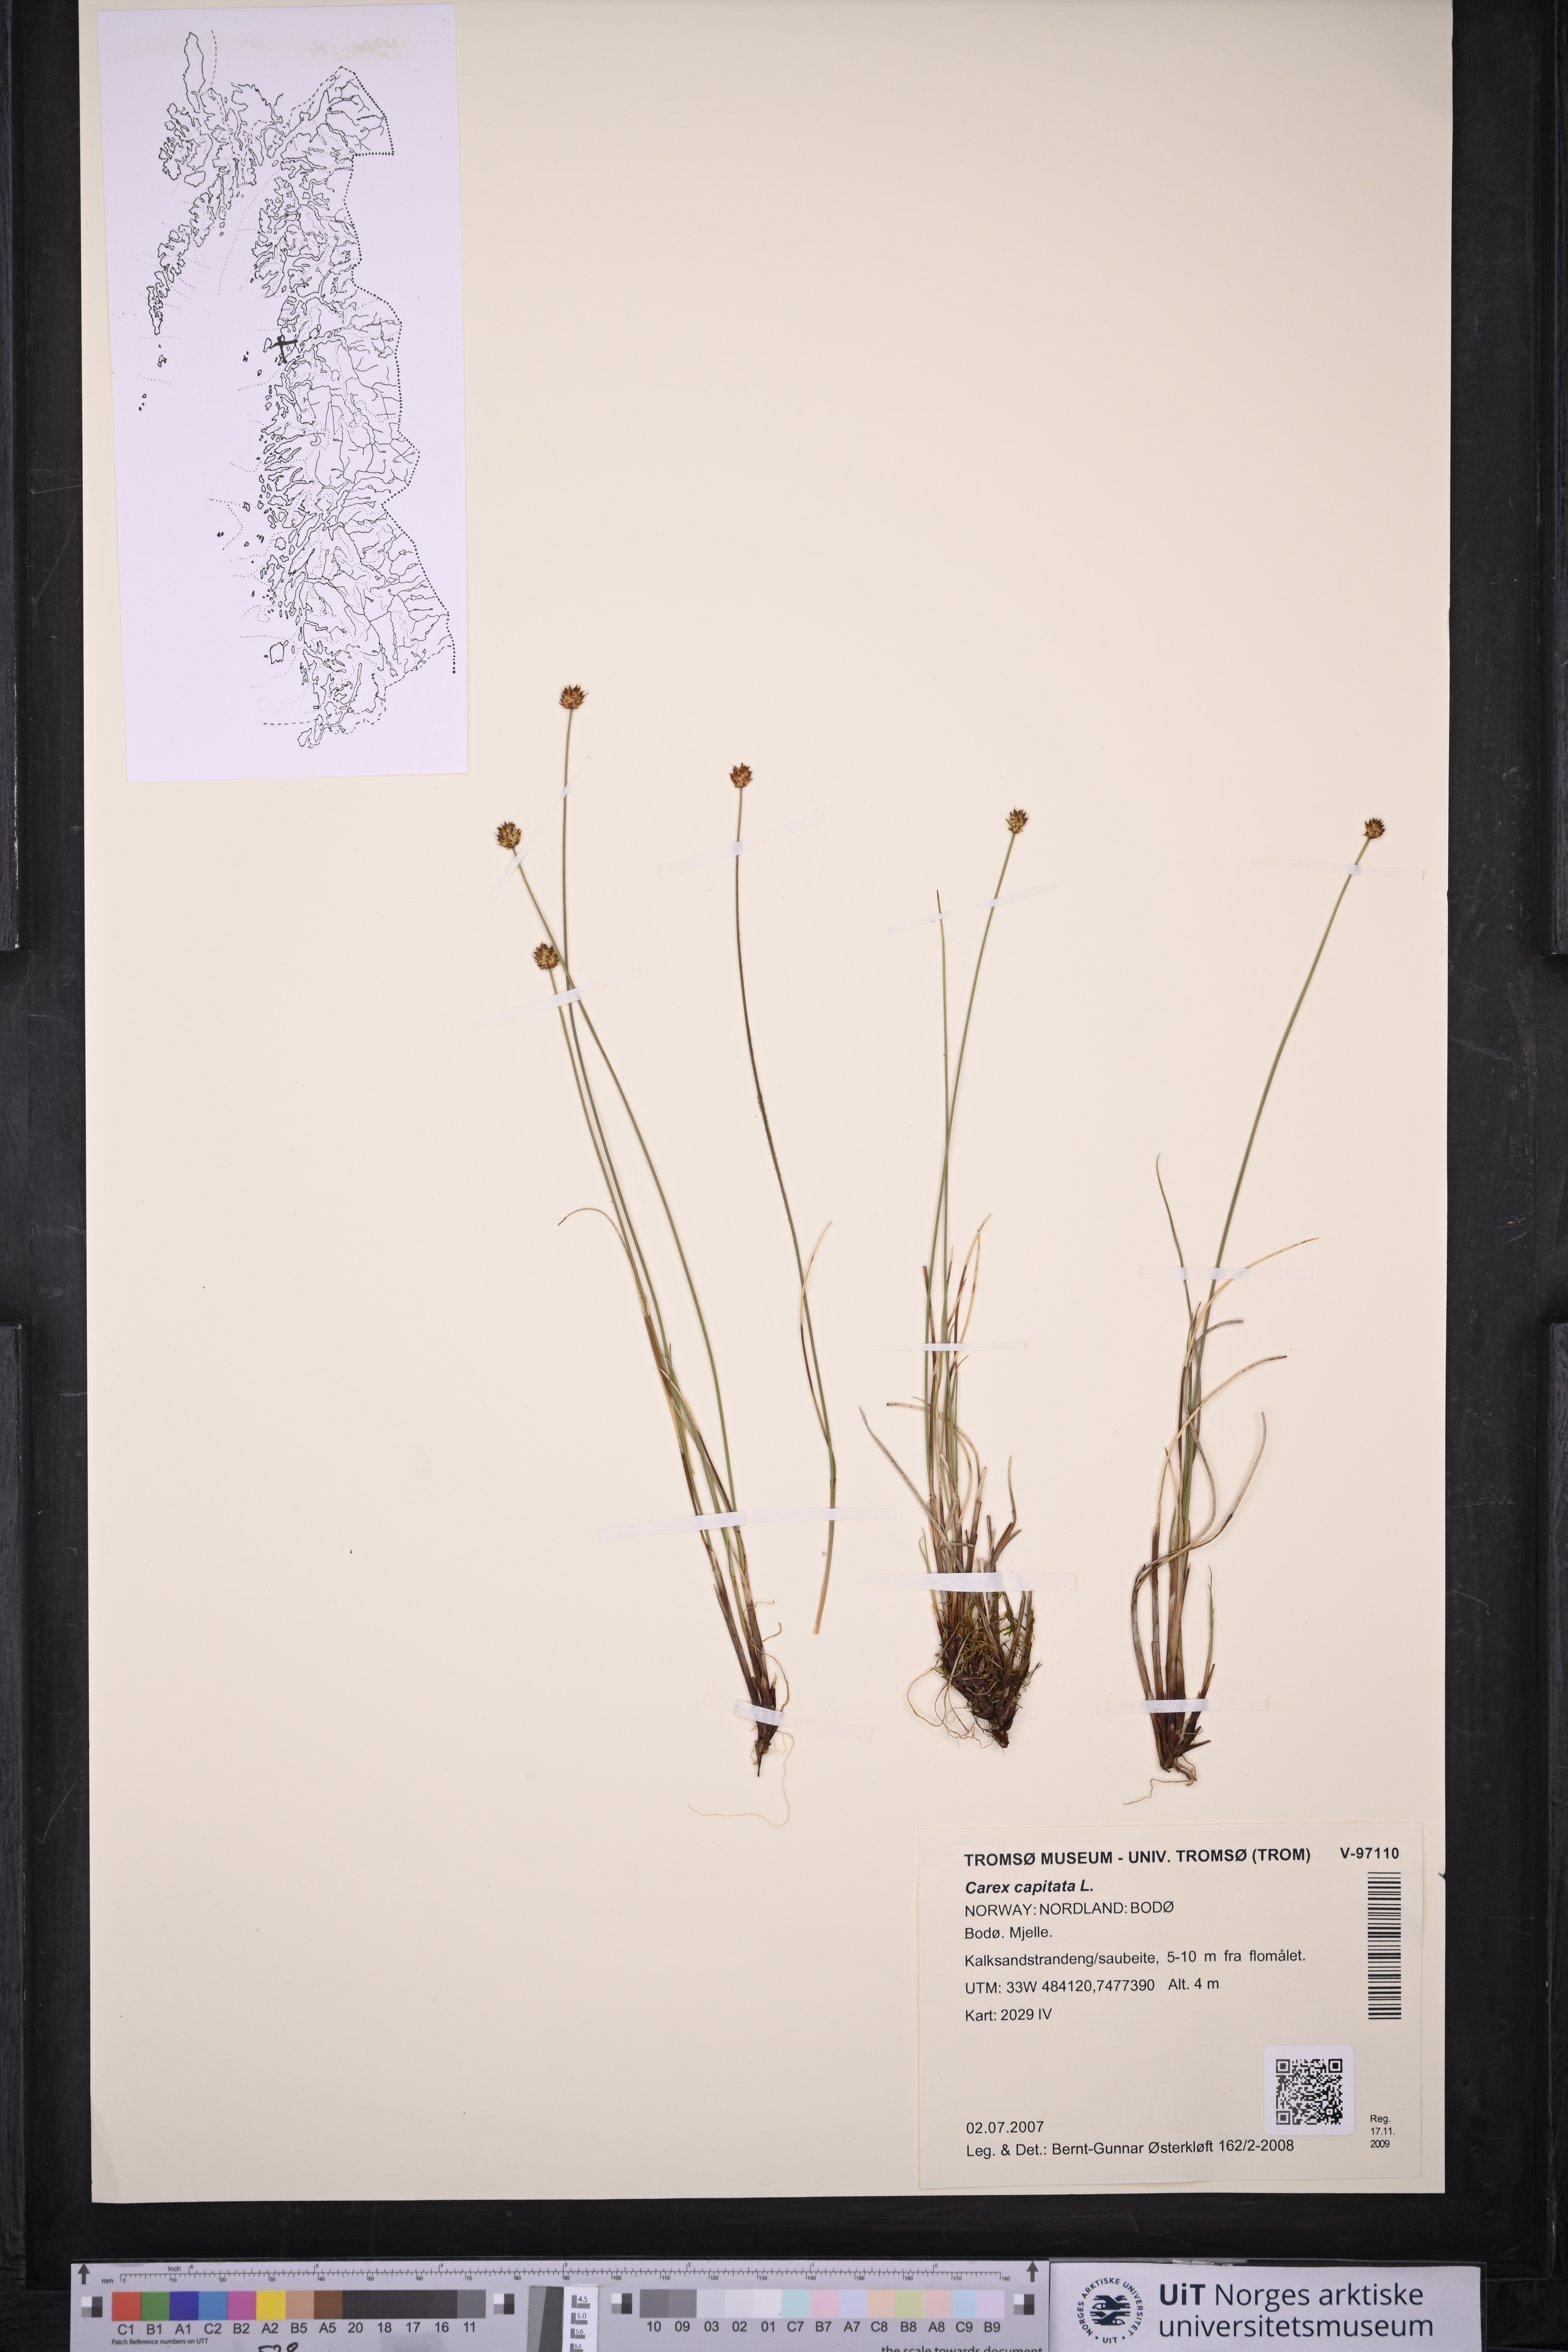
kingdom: Plantae
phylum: Tracheophyta
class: Liliopsida
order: Poales
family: Cyperaceae
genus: Carex
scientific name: Carex capitata
